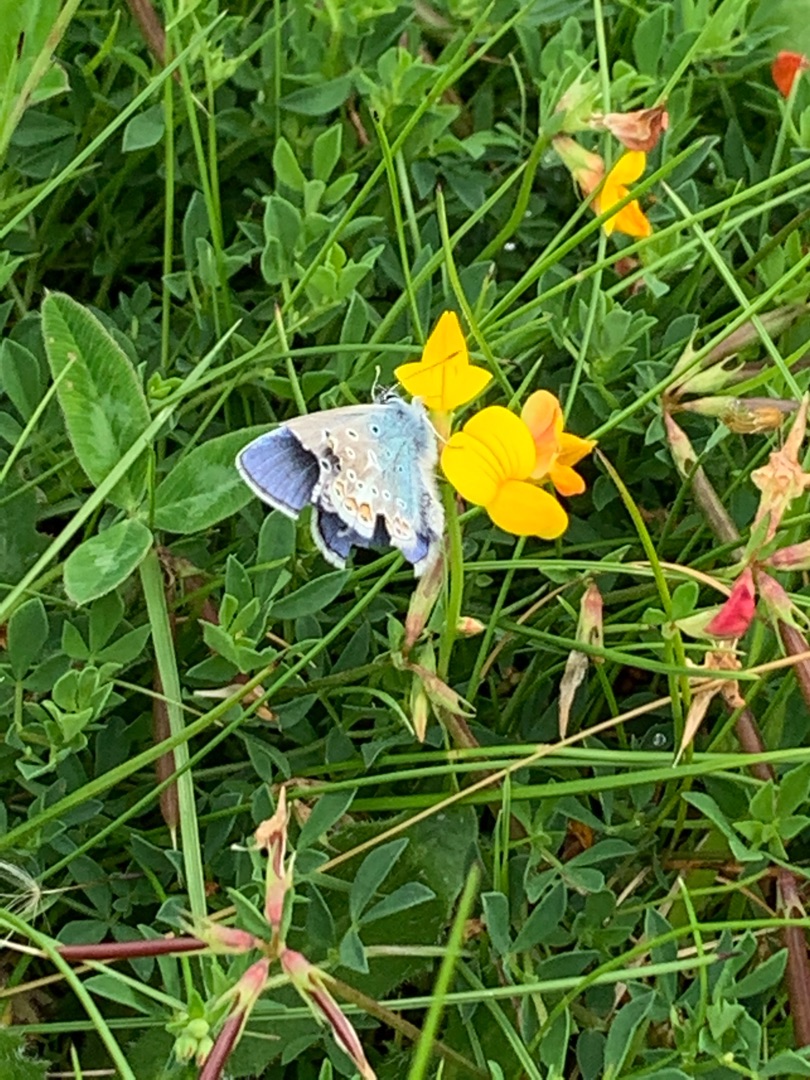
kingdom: Animalia
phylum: Arthropoda
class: Insecta
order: Lepidoptera
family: Lycaenidae
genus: Polyommatus
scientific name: Polyommatus icarus
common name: Almindelig blåfugl
